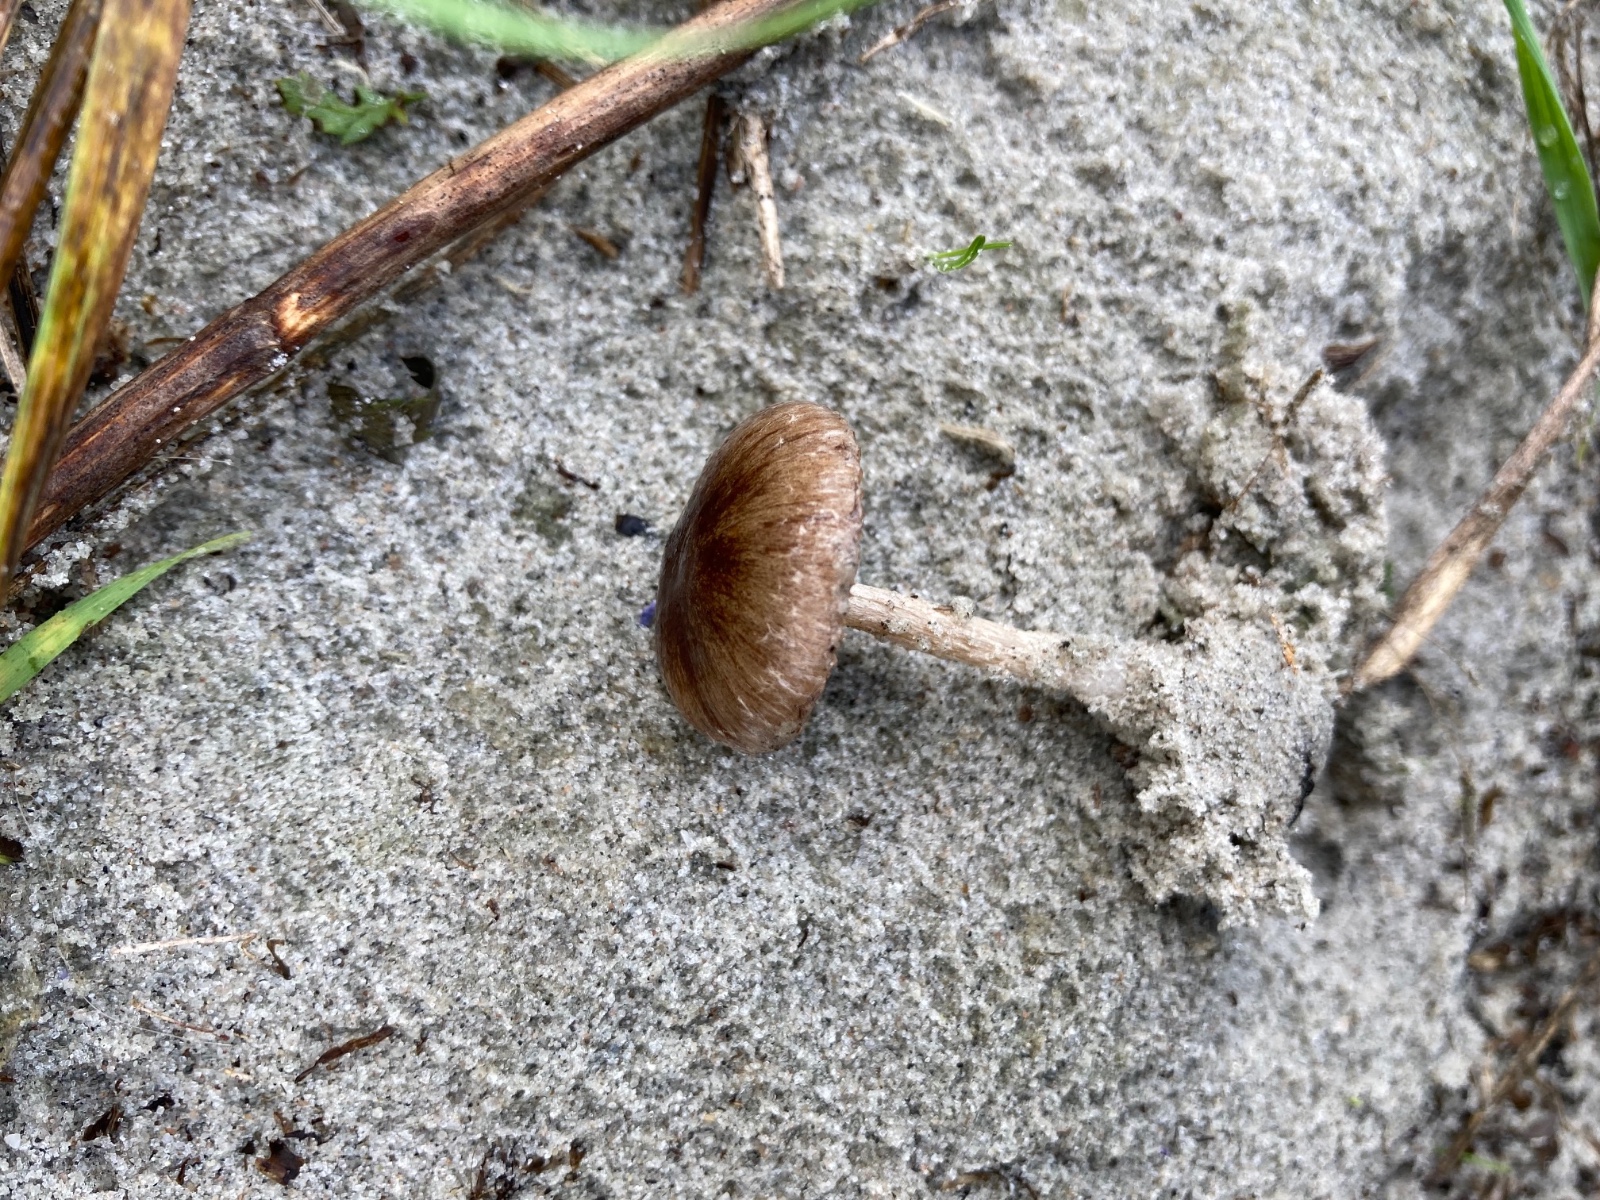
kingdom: Fungi
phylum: Basidiomycota
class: Agaricomycetes
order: Agaricales
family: Psathyrellaceae
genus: Psathyrella
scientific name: Psathyrella ammophila
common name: klit-mørkhat
